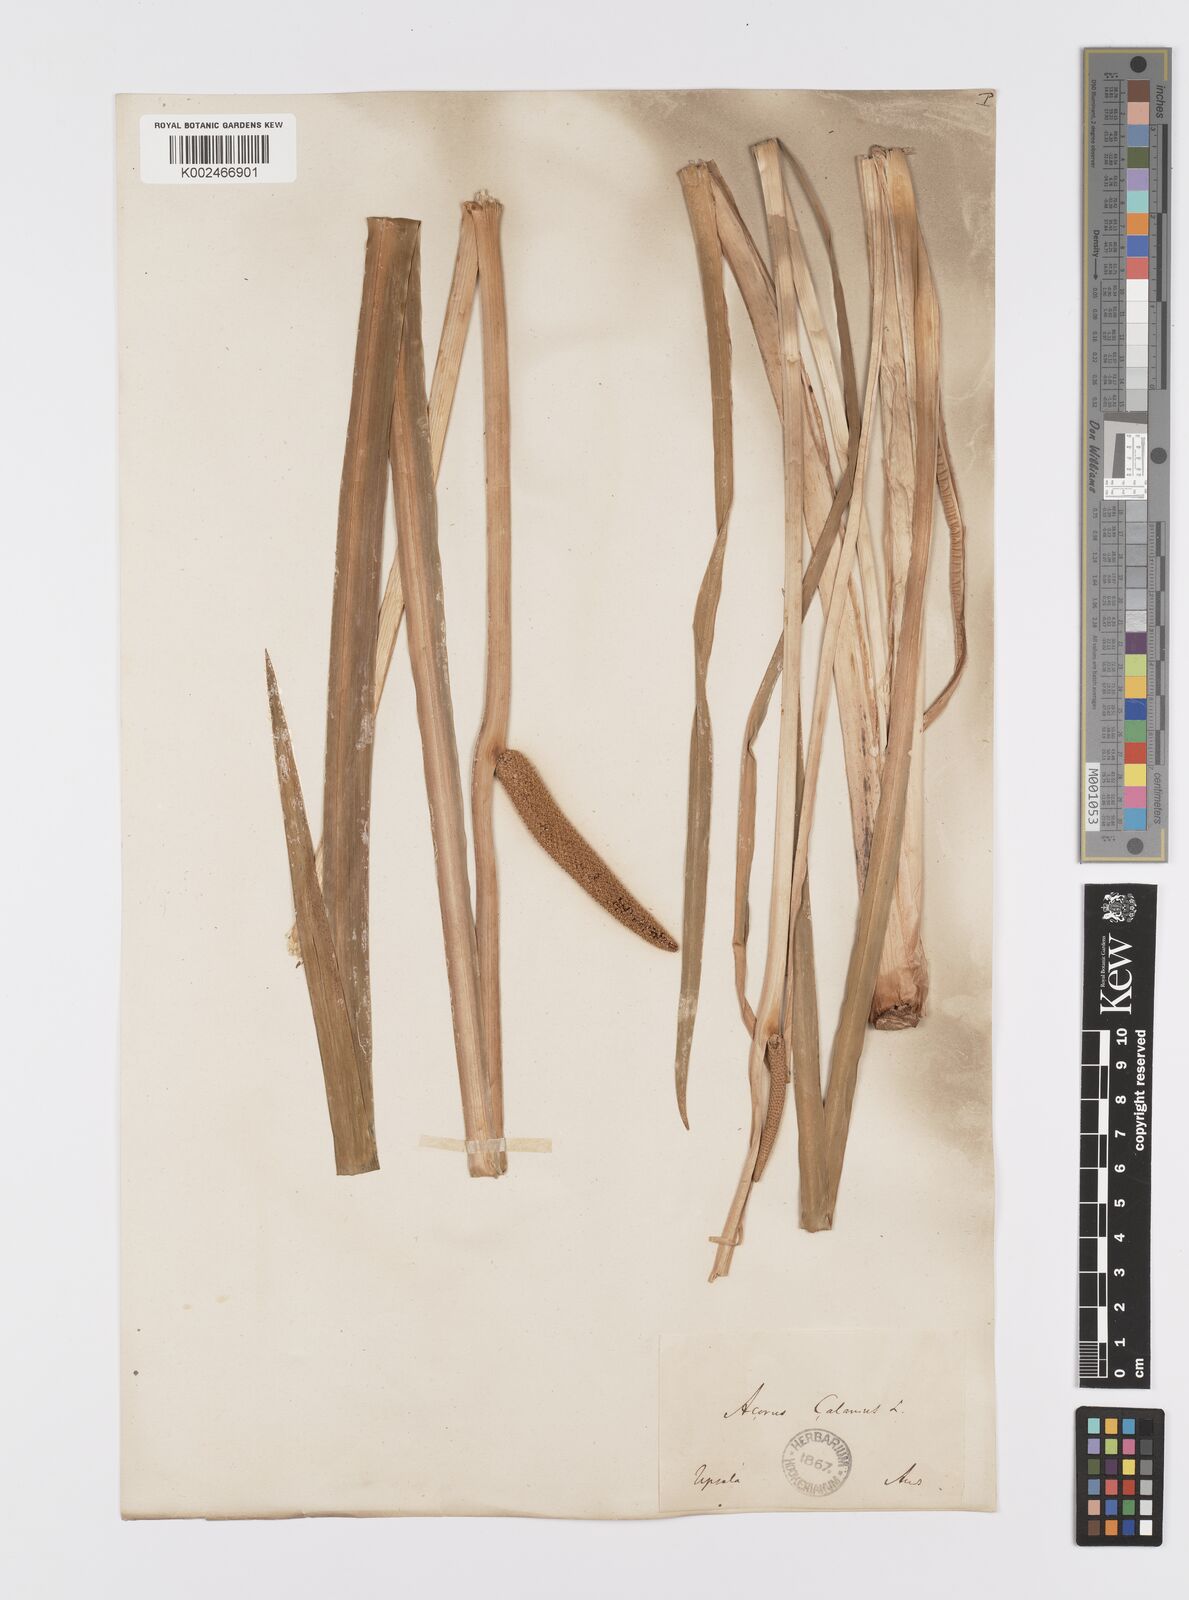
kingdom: Plantae
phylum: Tracheophyta
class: Liliopsida
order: Acorales
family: Acoraceae
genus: Acorus
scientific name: Acorus calamus
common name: Sweet-flag
